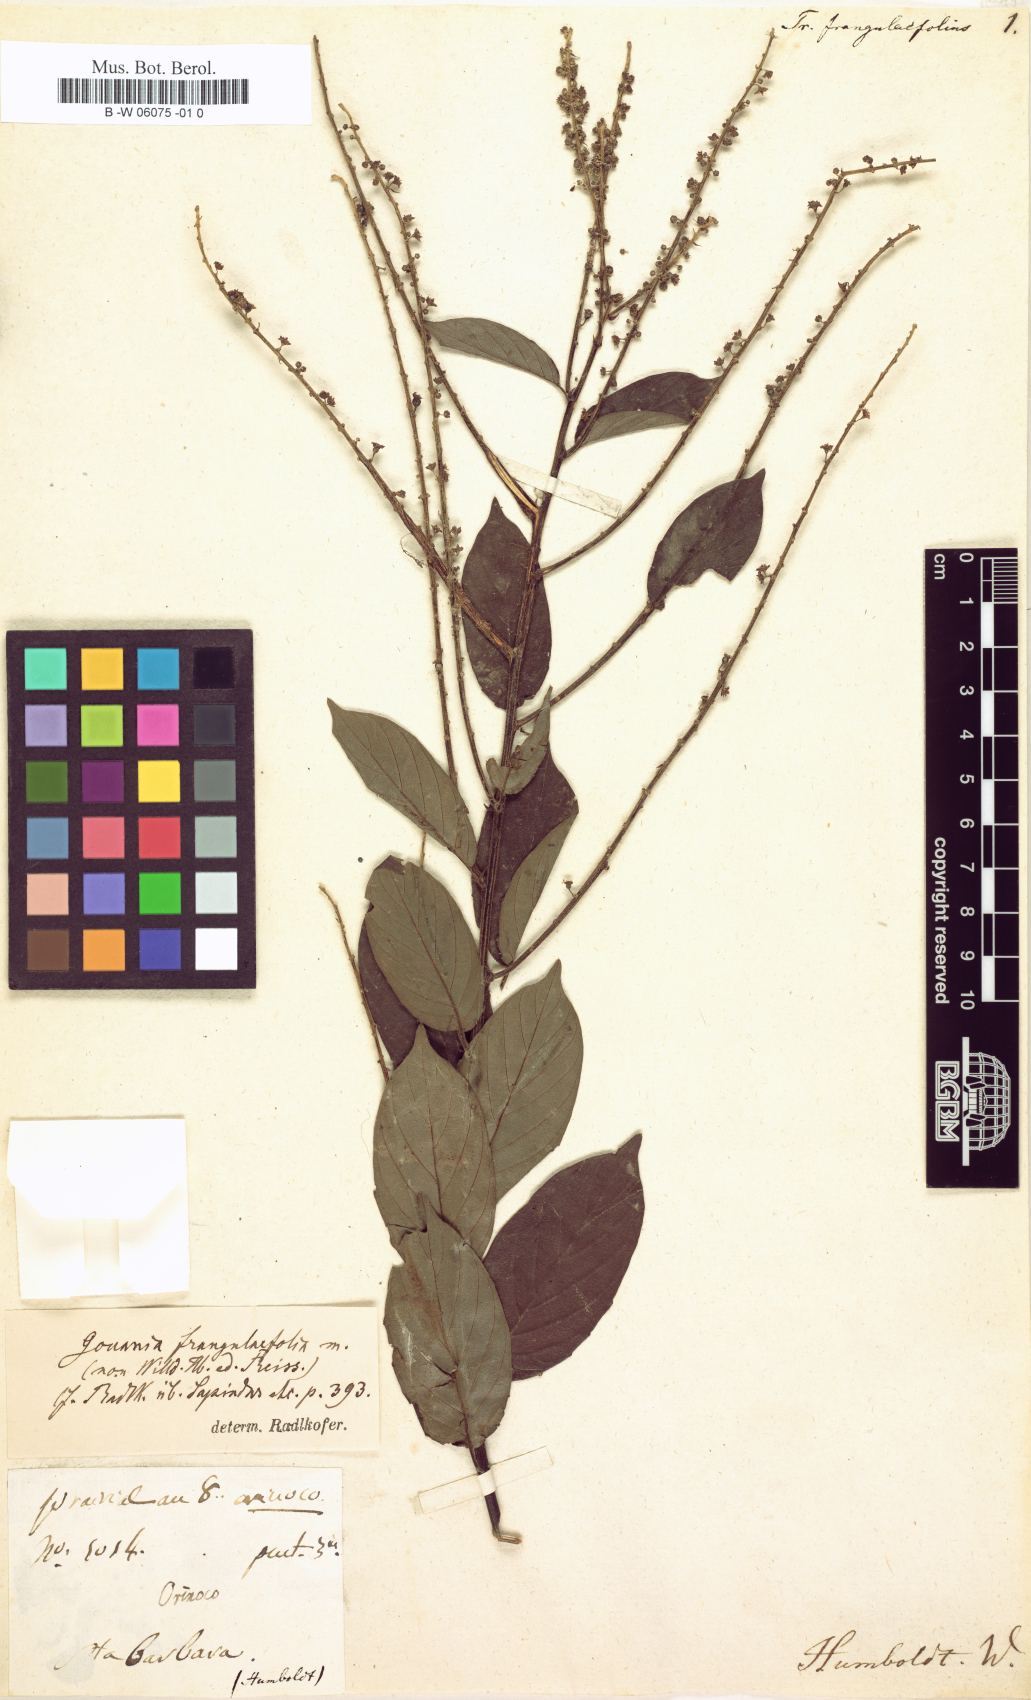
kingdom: Plantae
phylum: Tracheophyta
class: Magnoliopsida
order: Rosales
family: Rhamnaceae
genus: Gouania
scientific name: Gouania frangulifolia
